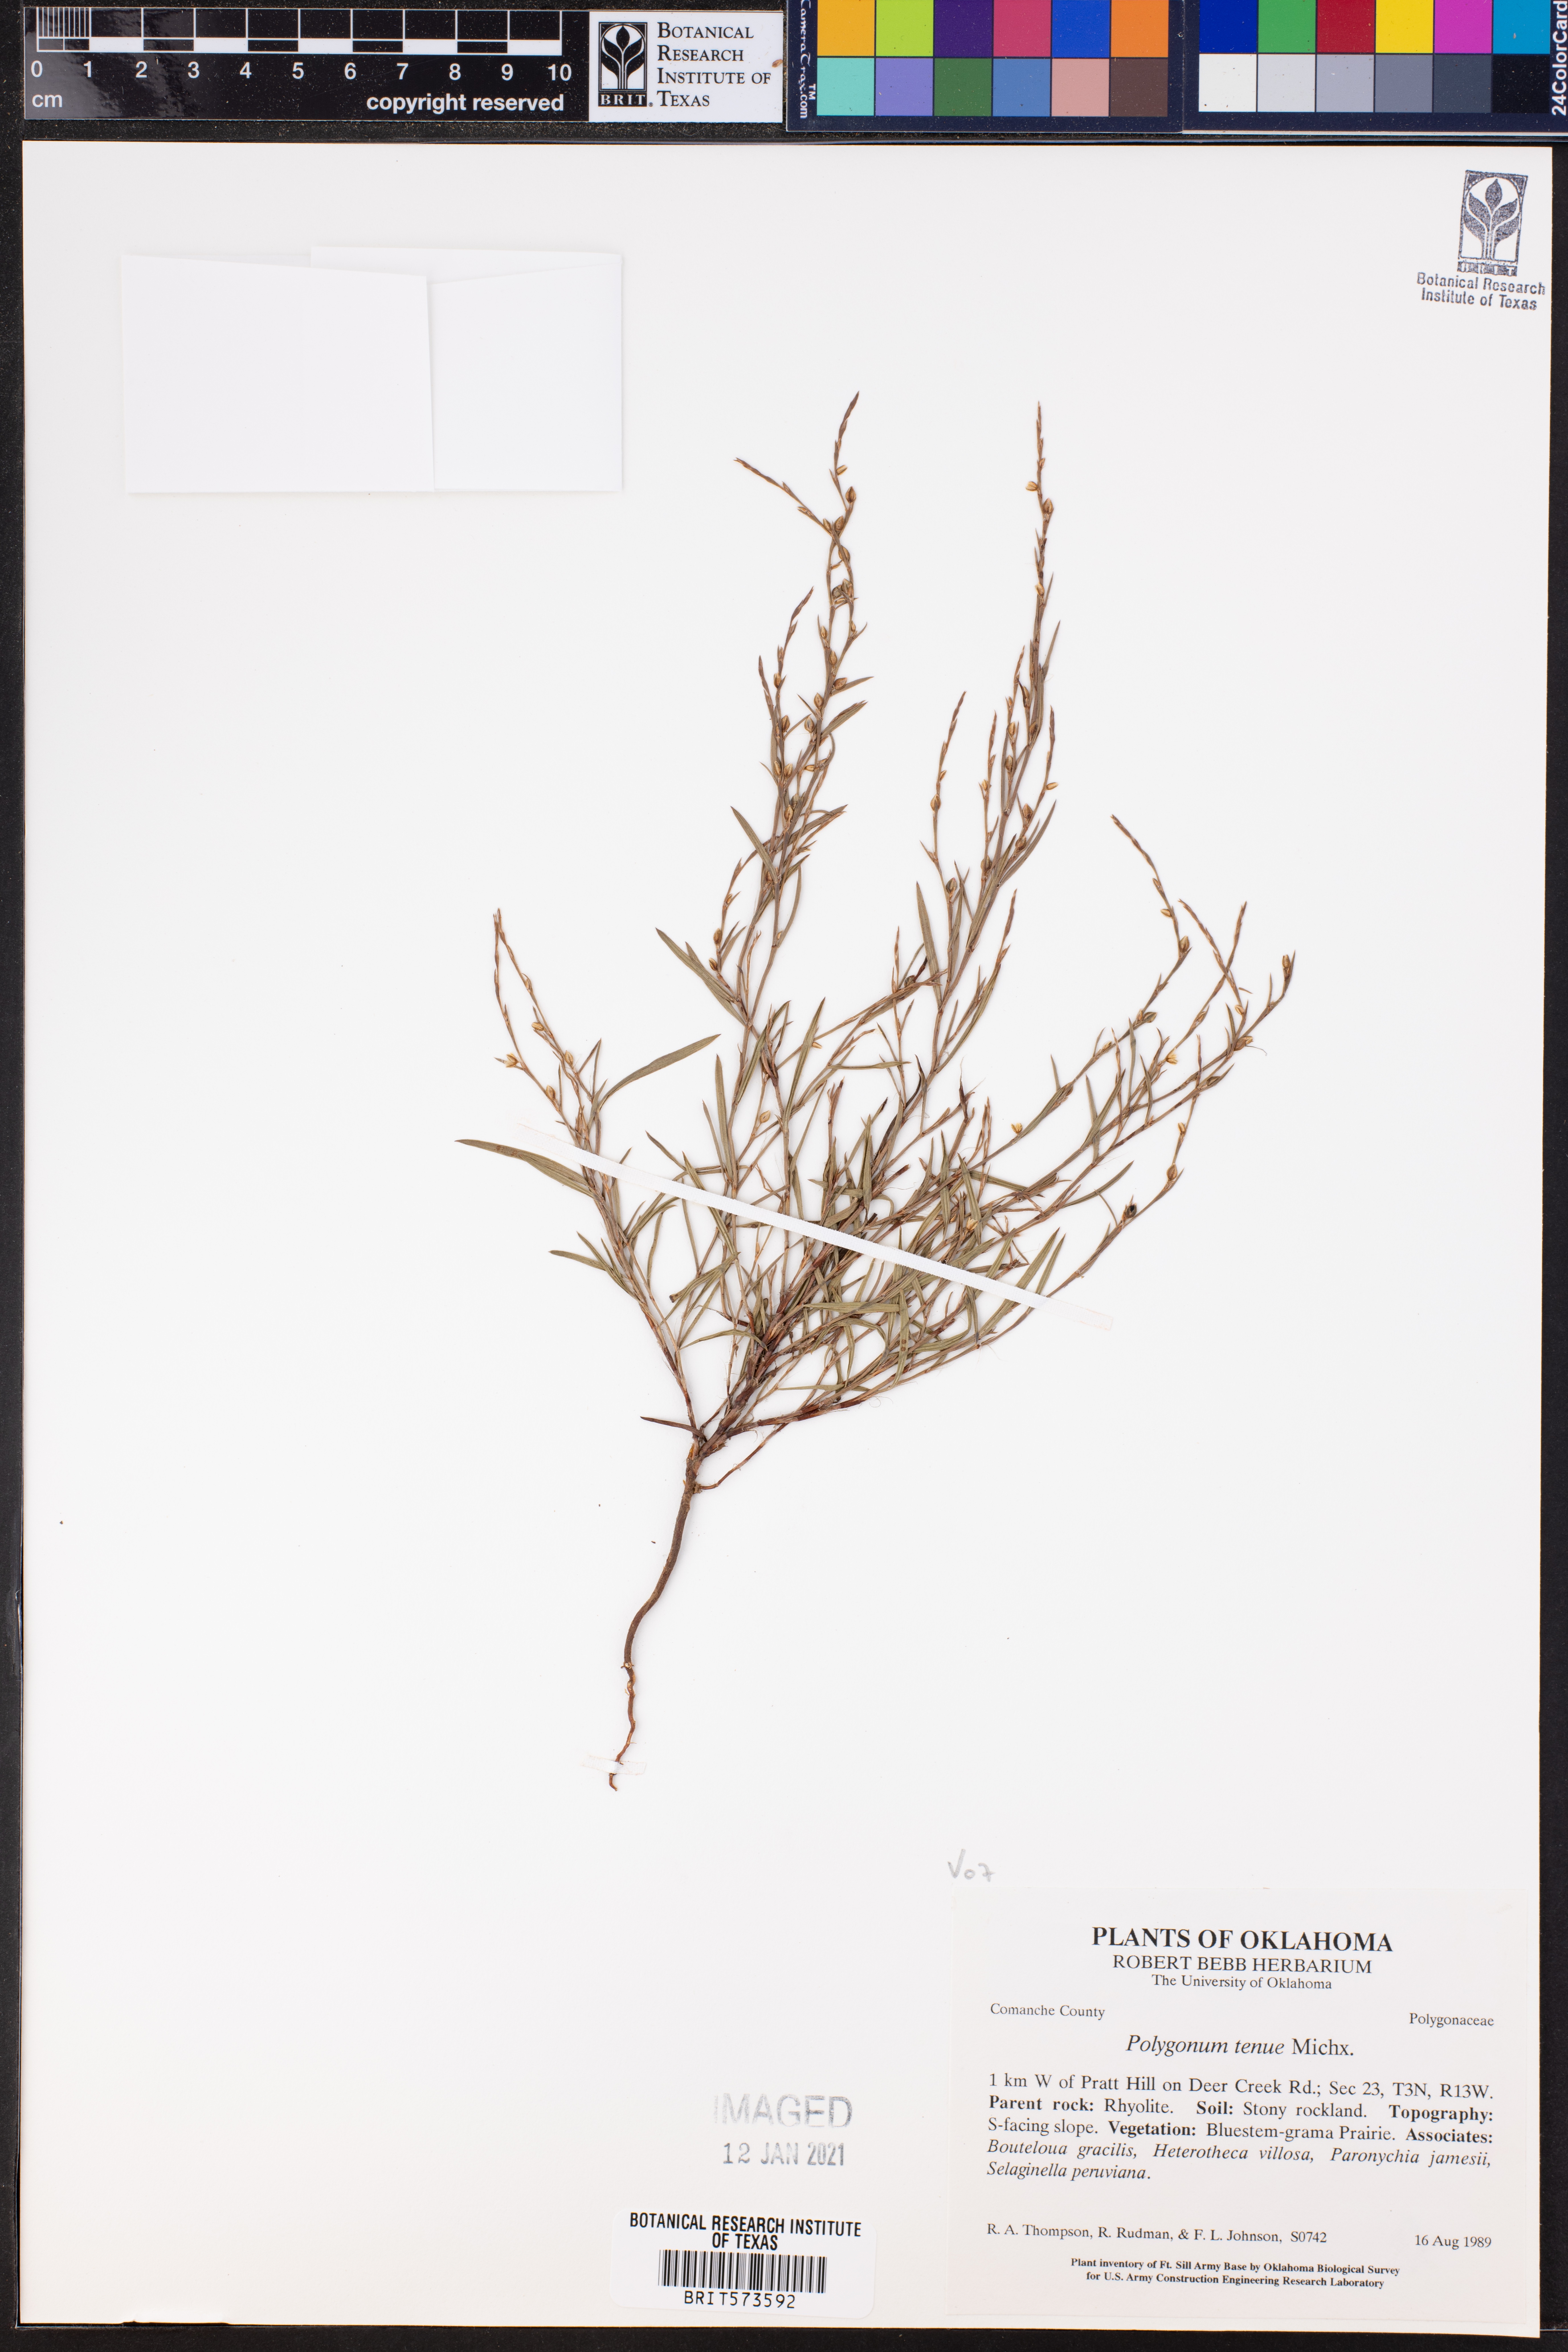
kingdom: Plantae
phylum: Tracheophyta
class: Magnoliopsida
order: Caryophyllales
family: Polygonaceae
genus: Polygonum
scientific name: Polygonum tenue
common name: Pleat-leaved knotweed
